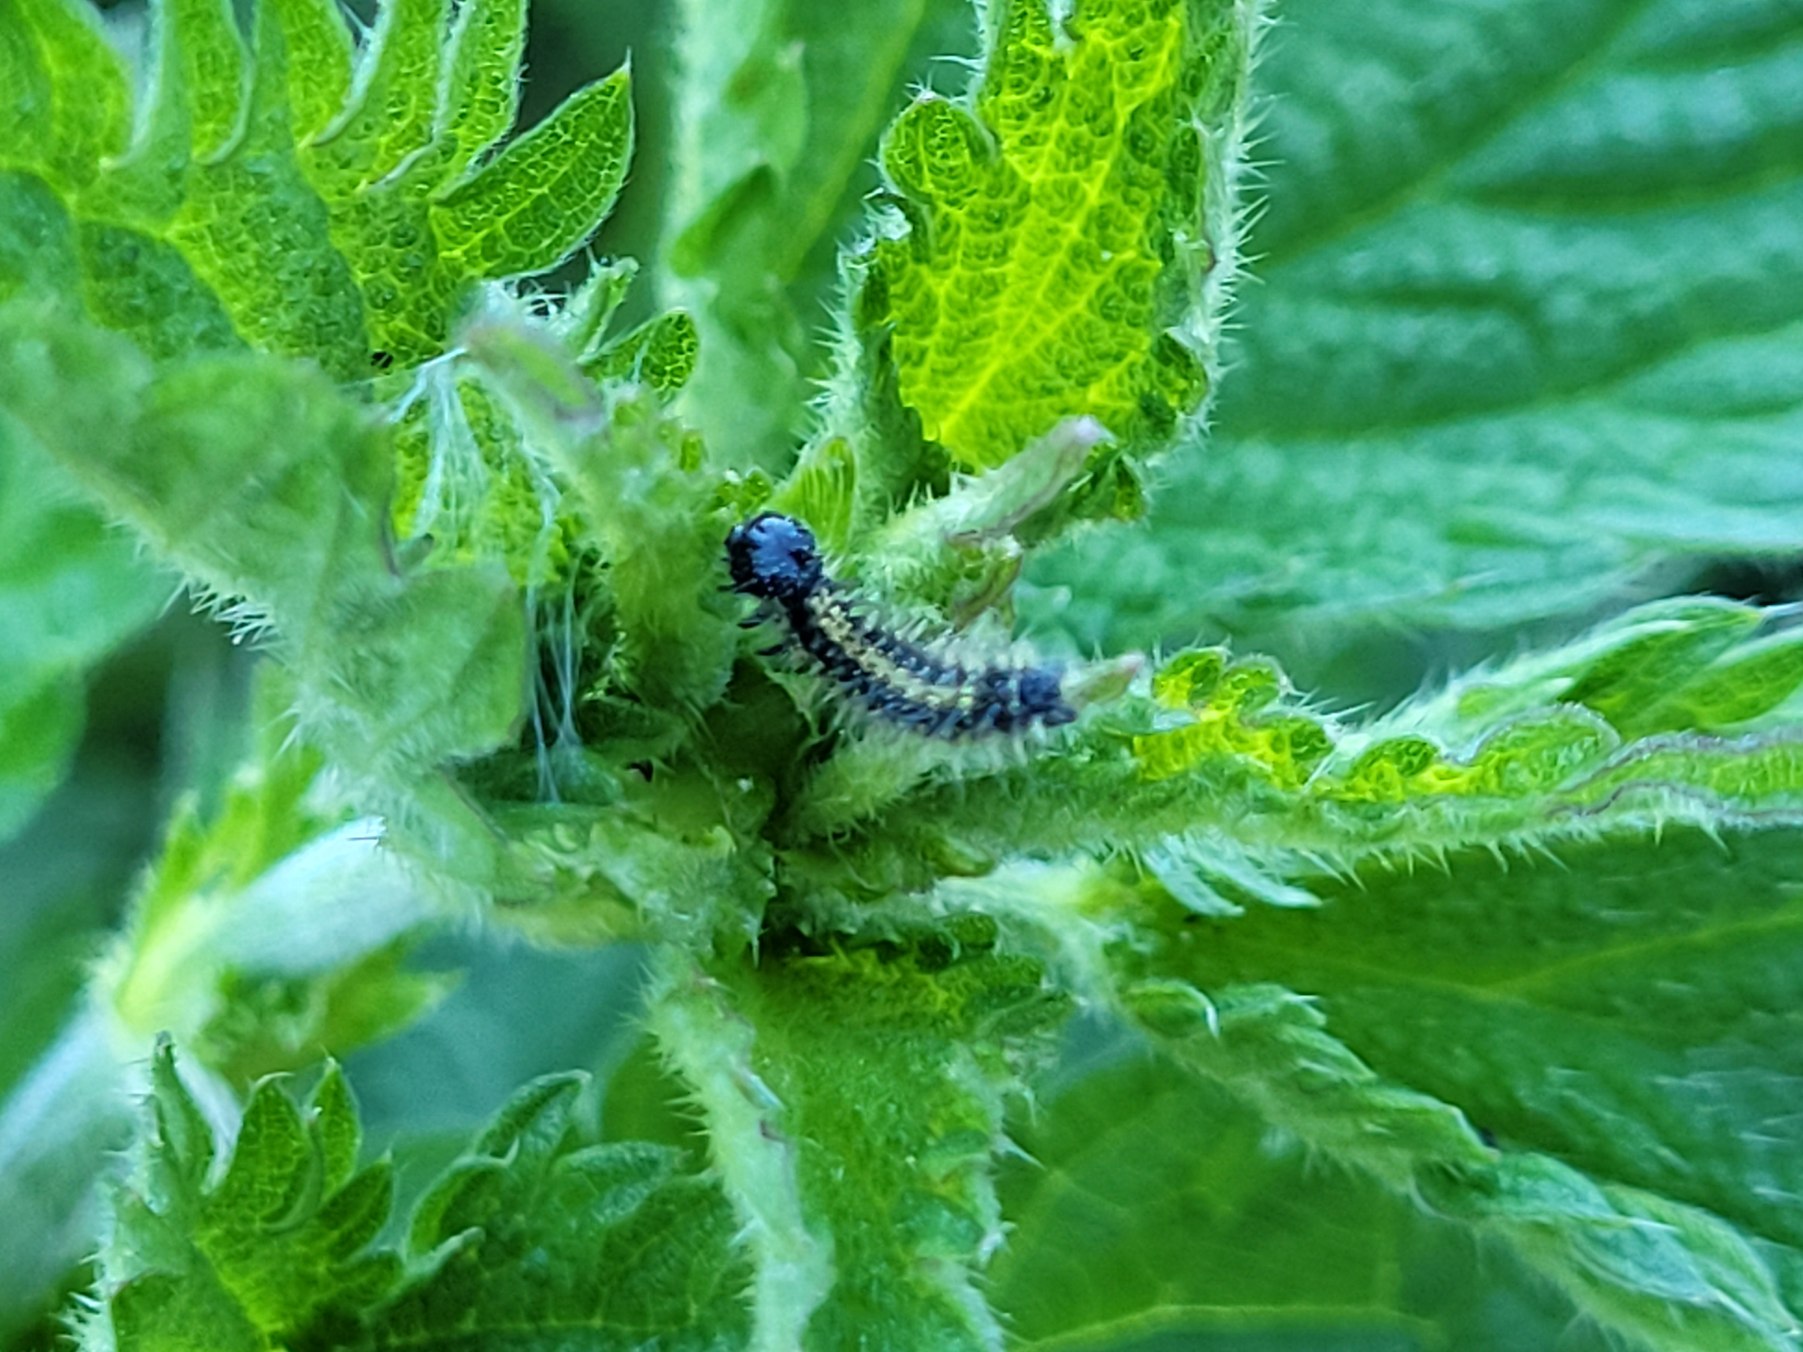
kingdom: Animalia
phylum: Arthropoda
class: Insecta
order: Lepidoptera
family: Nymphalidae
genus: Aglais
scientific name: Aglais urticae
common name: Nældens takvinge
